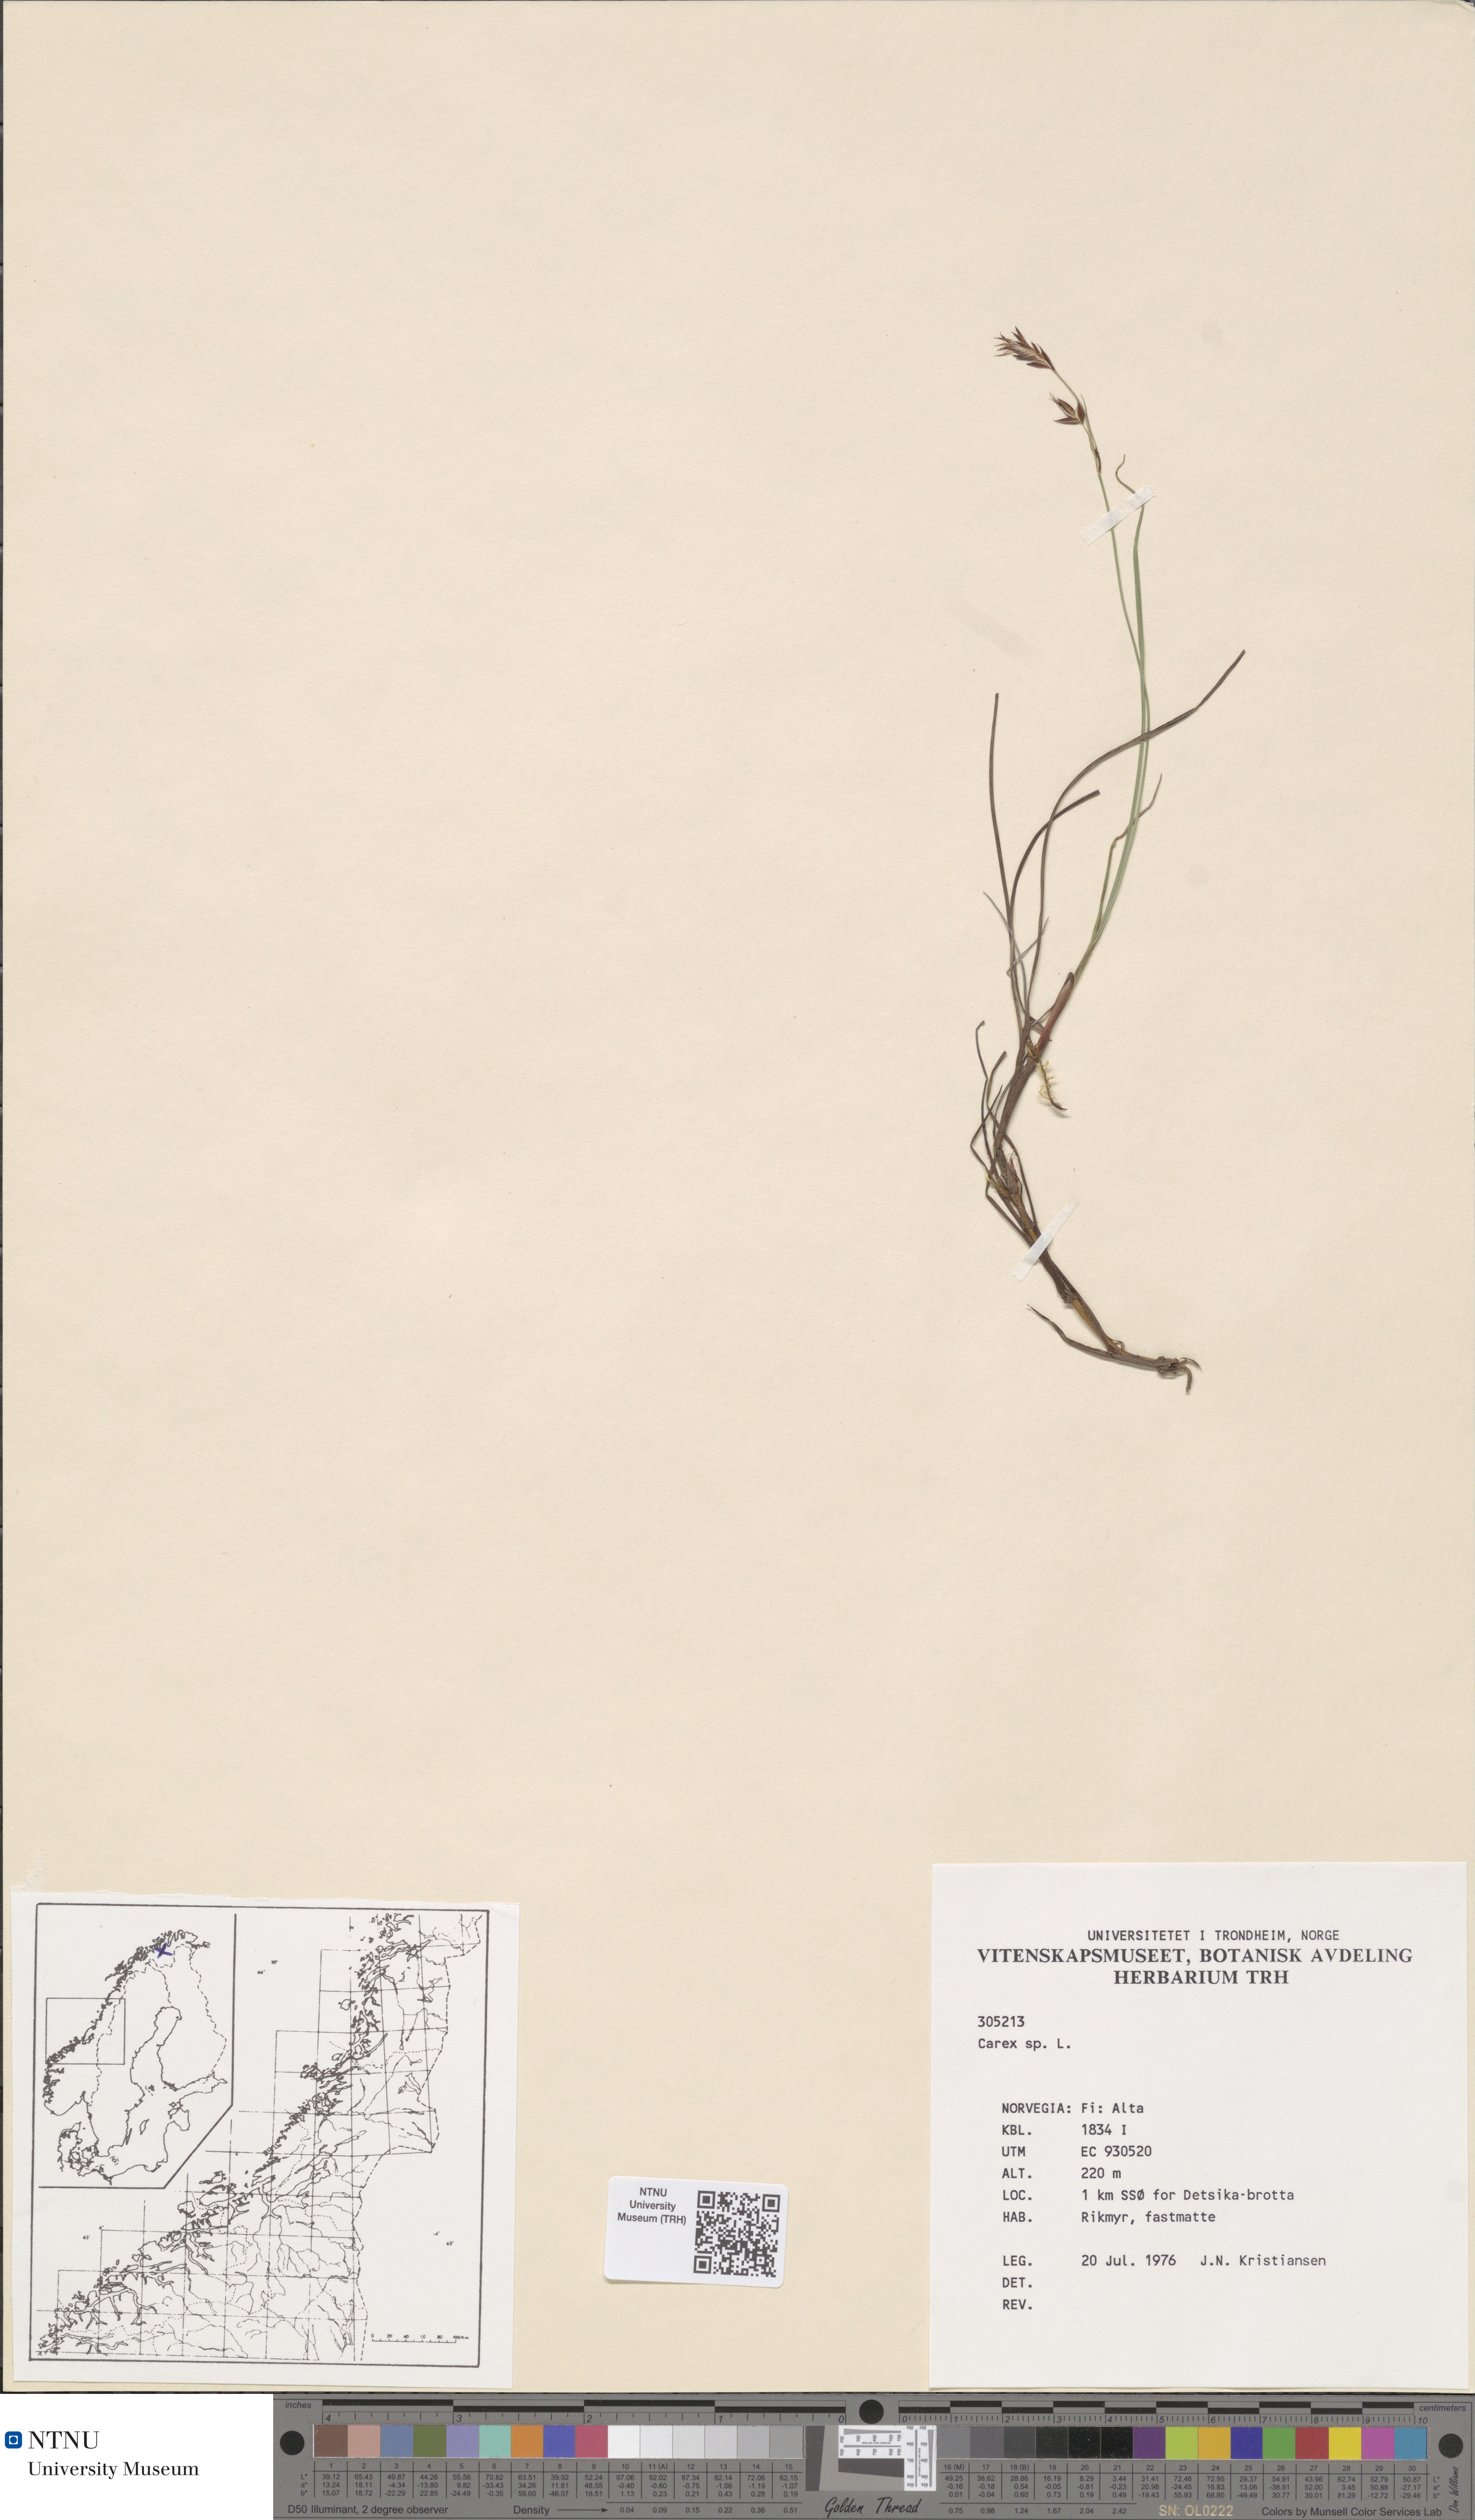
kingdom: Plantae
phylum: Tracheophyta
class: Liliopsida
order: Poales
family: Cyperaceae
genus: Carex
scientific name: Carex magellanica
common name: Bog sedge
